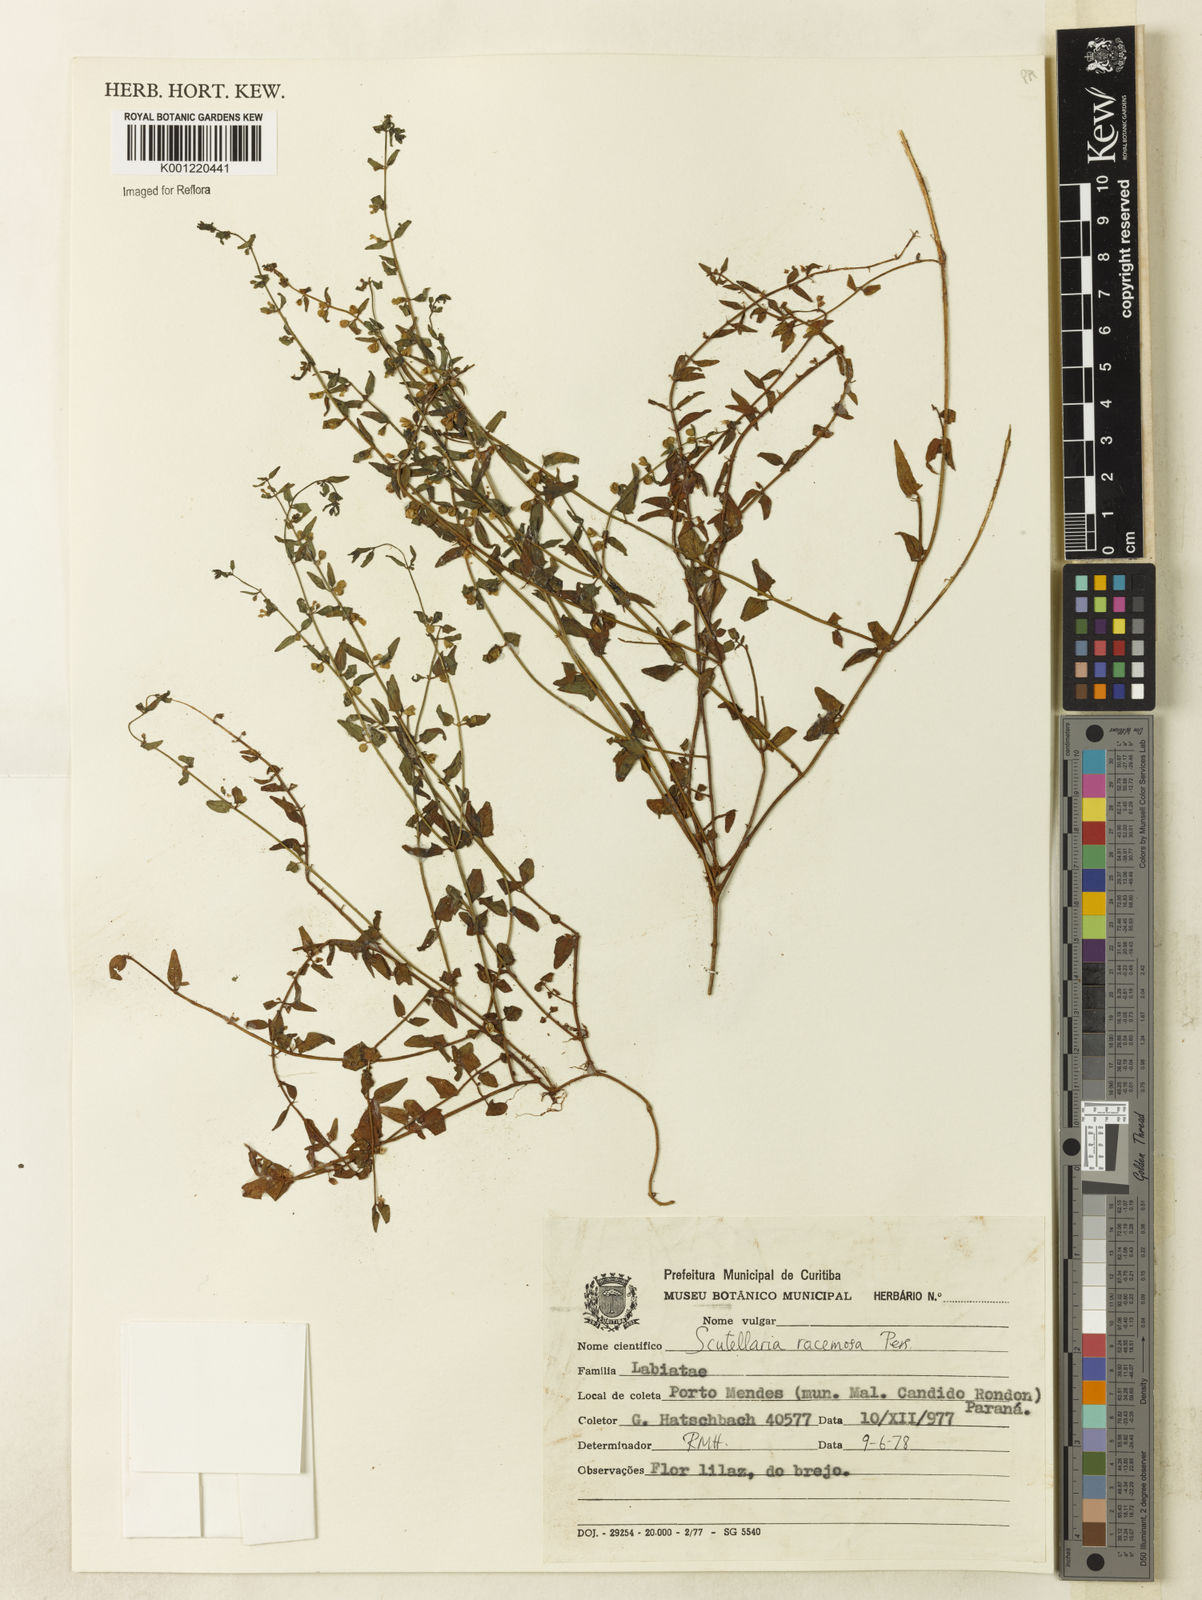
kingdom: Plantae
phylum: Tracheophyta
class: Magnoliopsida
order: Lamiales
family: Lamiaceae
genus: Scutellaria
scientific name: Scutellaria racemosa
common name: South american skullcap
